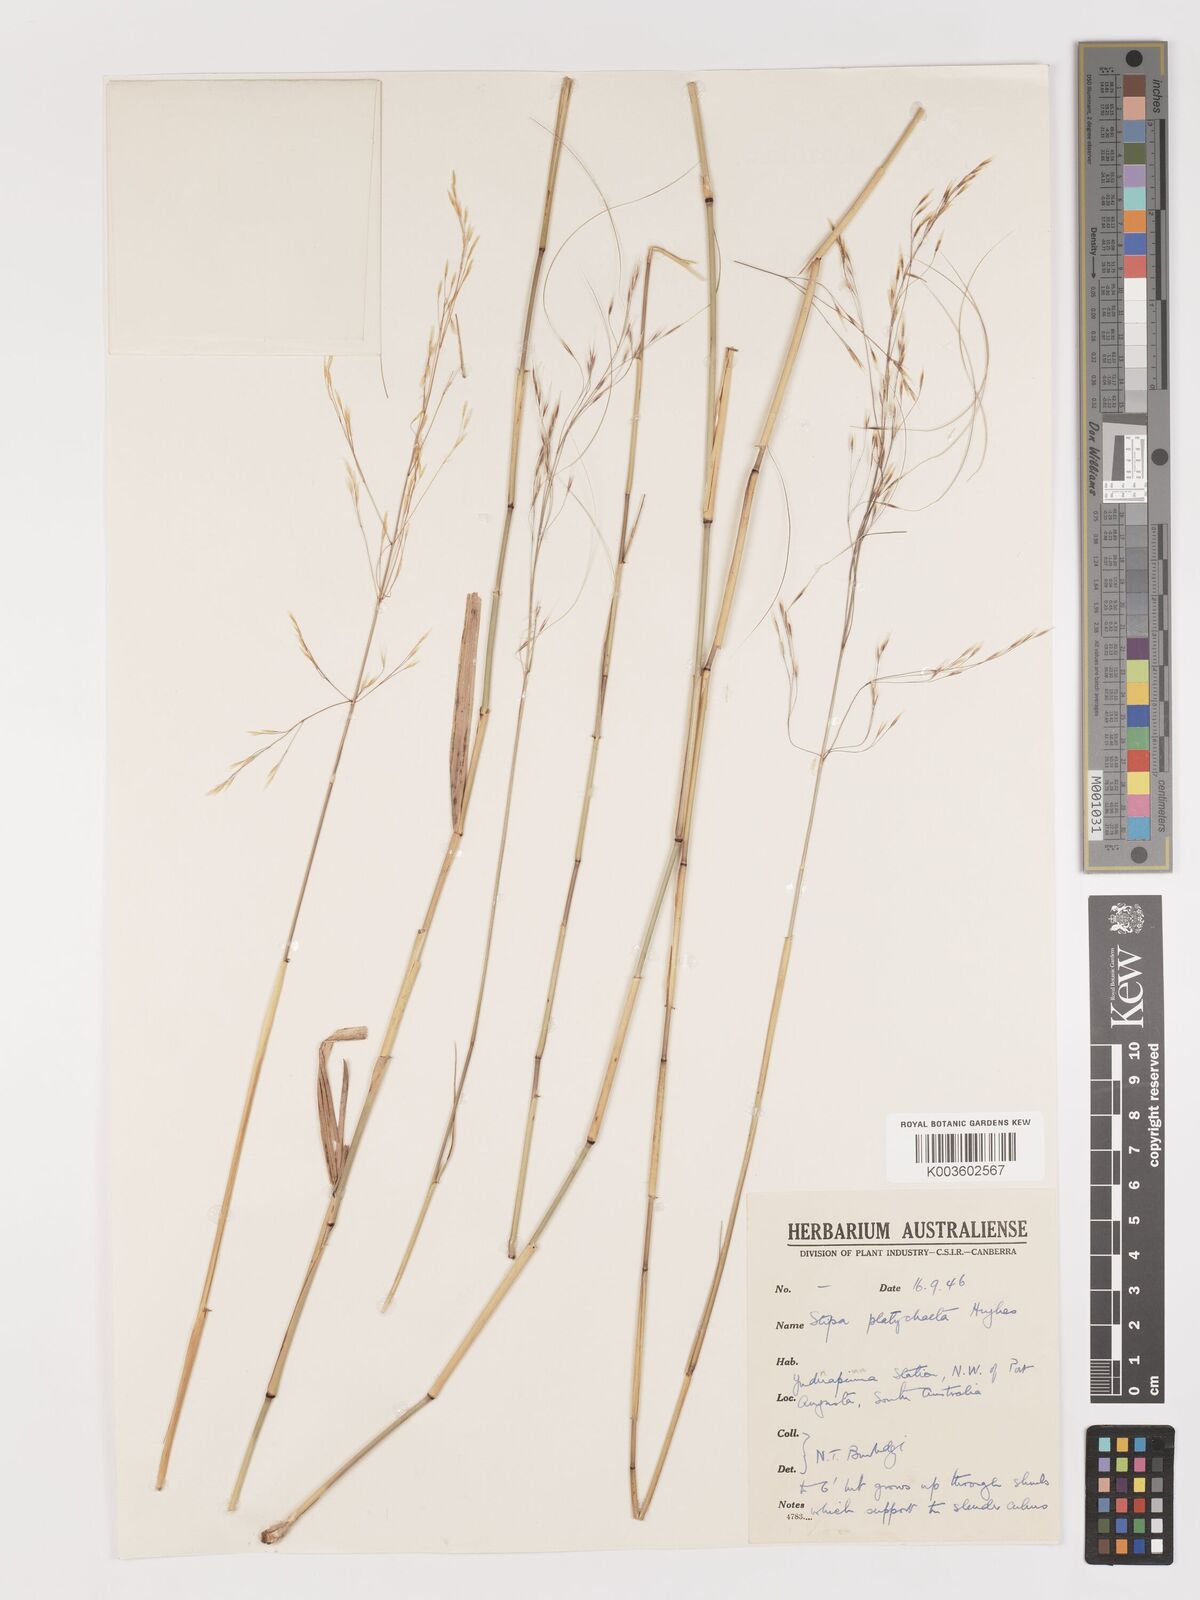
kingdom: Plantae
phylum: Tracheophyta
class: Liliopsida
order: Poales
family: Poaceae
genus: Austrostipa
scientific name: Austrostipa platychaeta
